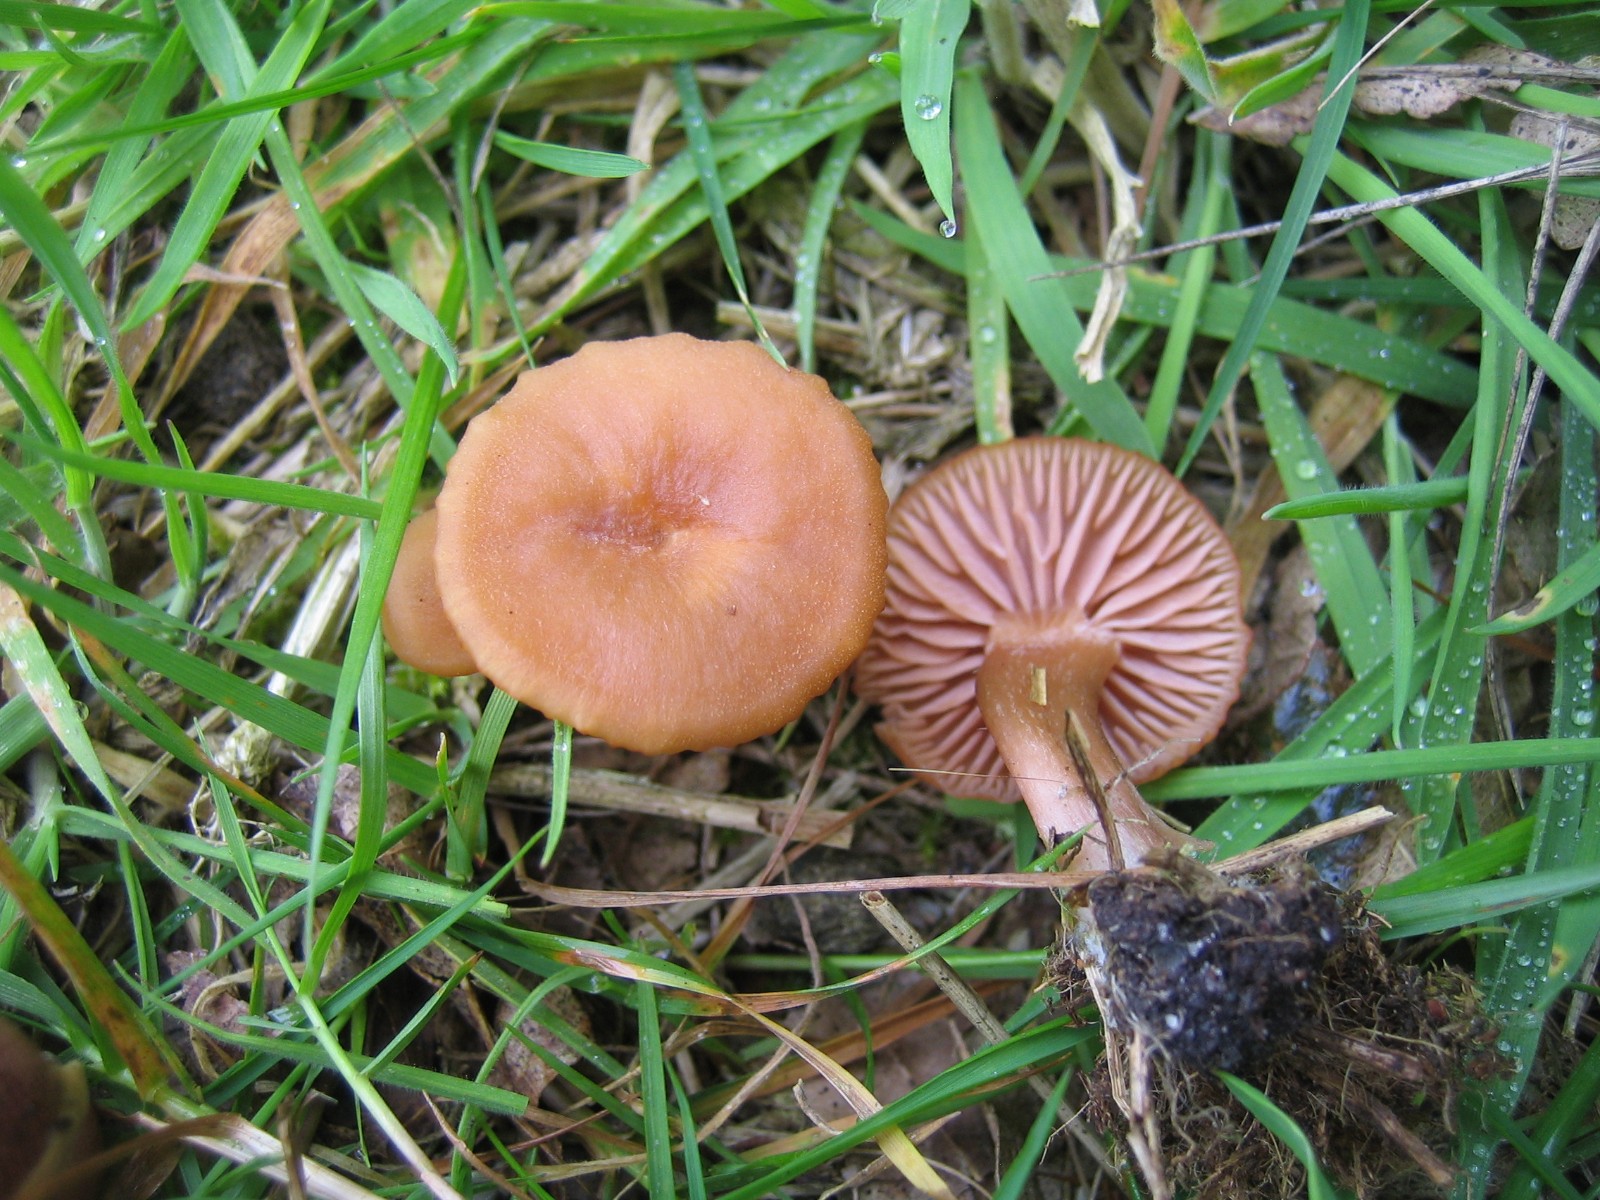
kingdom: Fungi
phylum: Basidiomycota
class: Agaricomycetes
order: Agaricales
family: Hydnangiaceae
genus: Laccaria
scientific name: Laccaria laccata
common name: rød ametysthat
